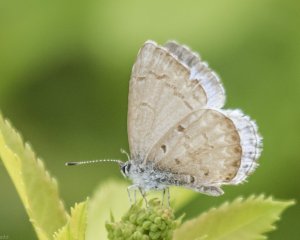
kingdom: Animalia
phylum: Arthropoda
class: Insecta
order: Lepidoptera
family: Lycaenidae
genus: Celastrina
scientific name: Celastrina
